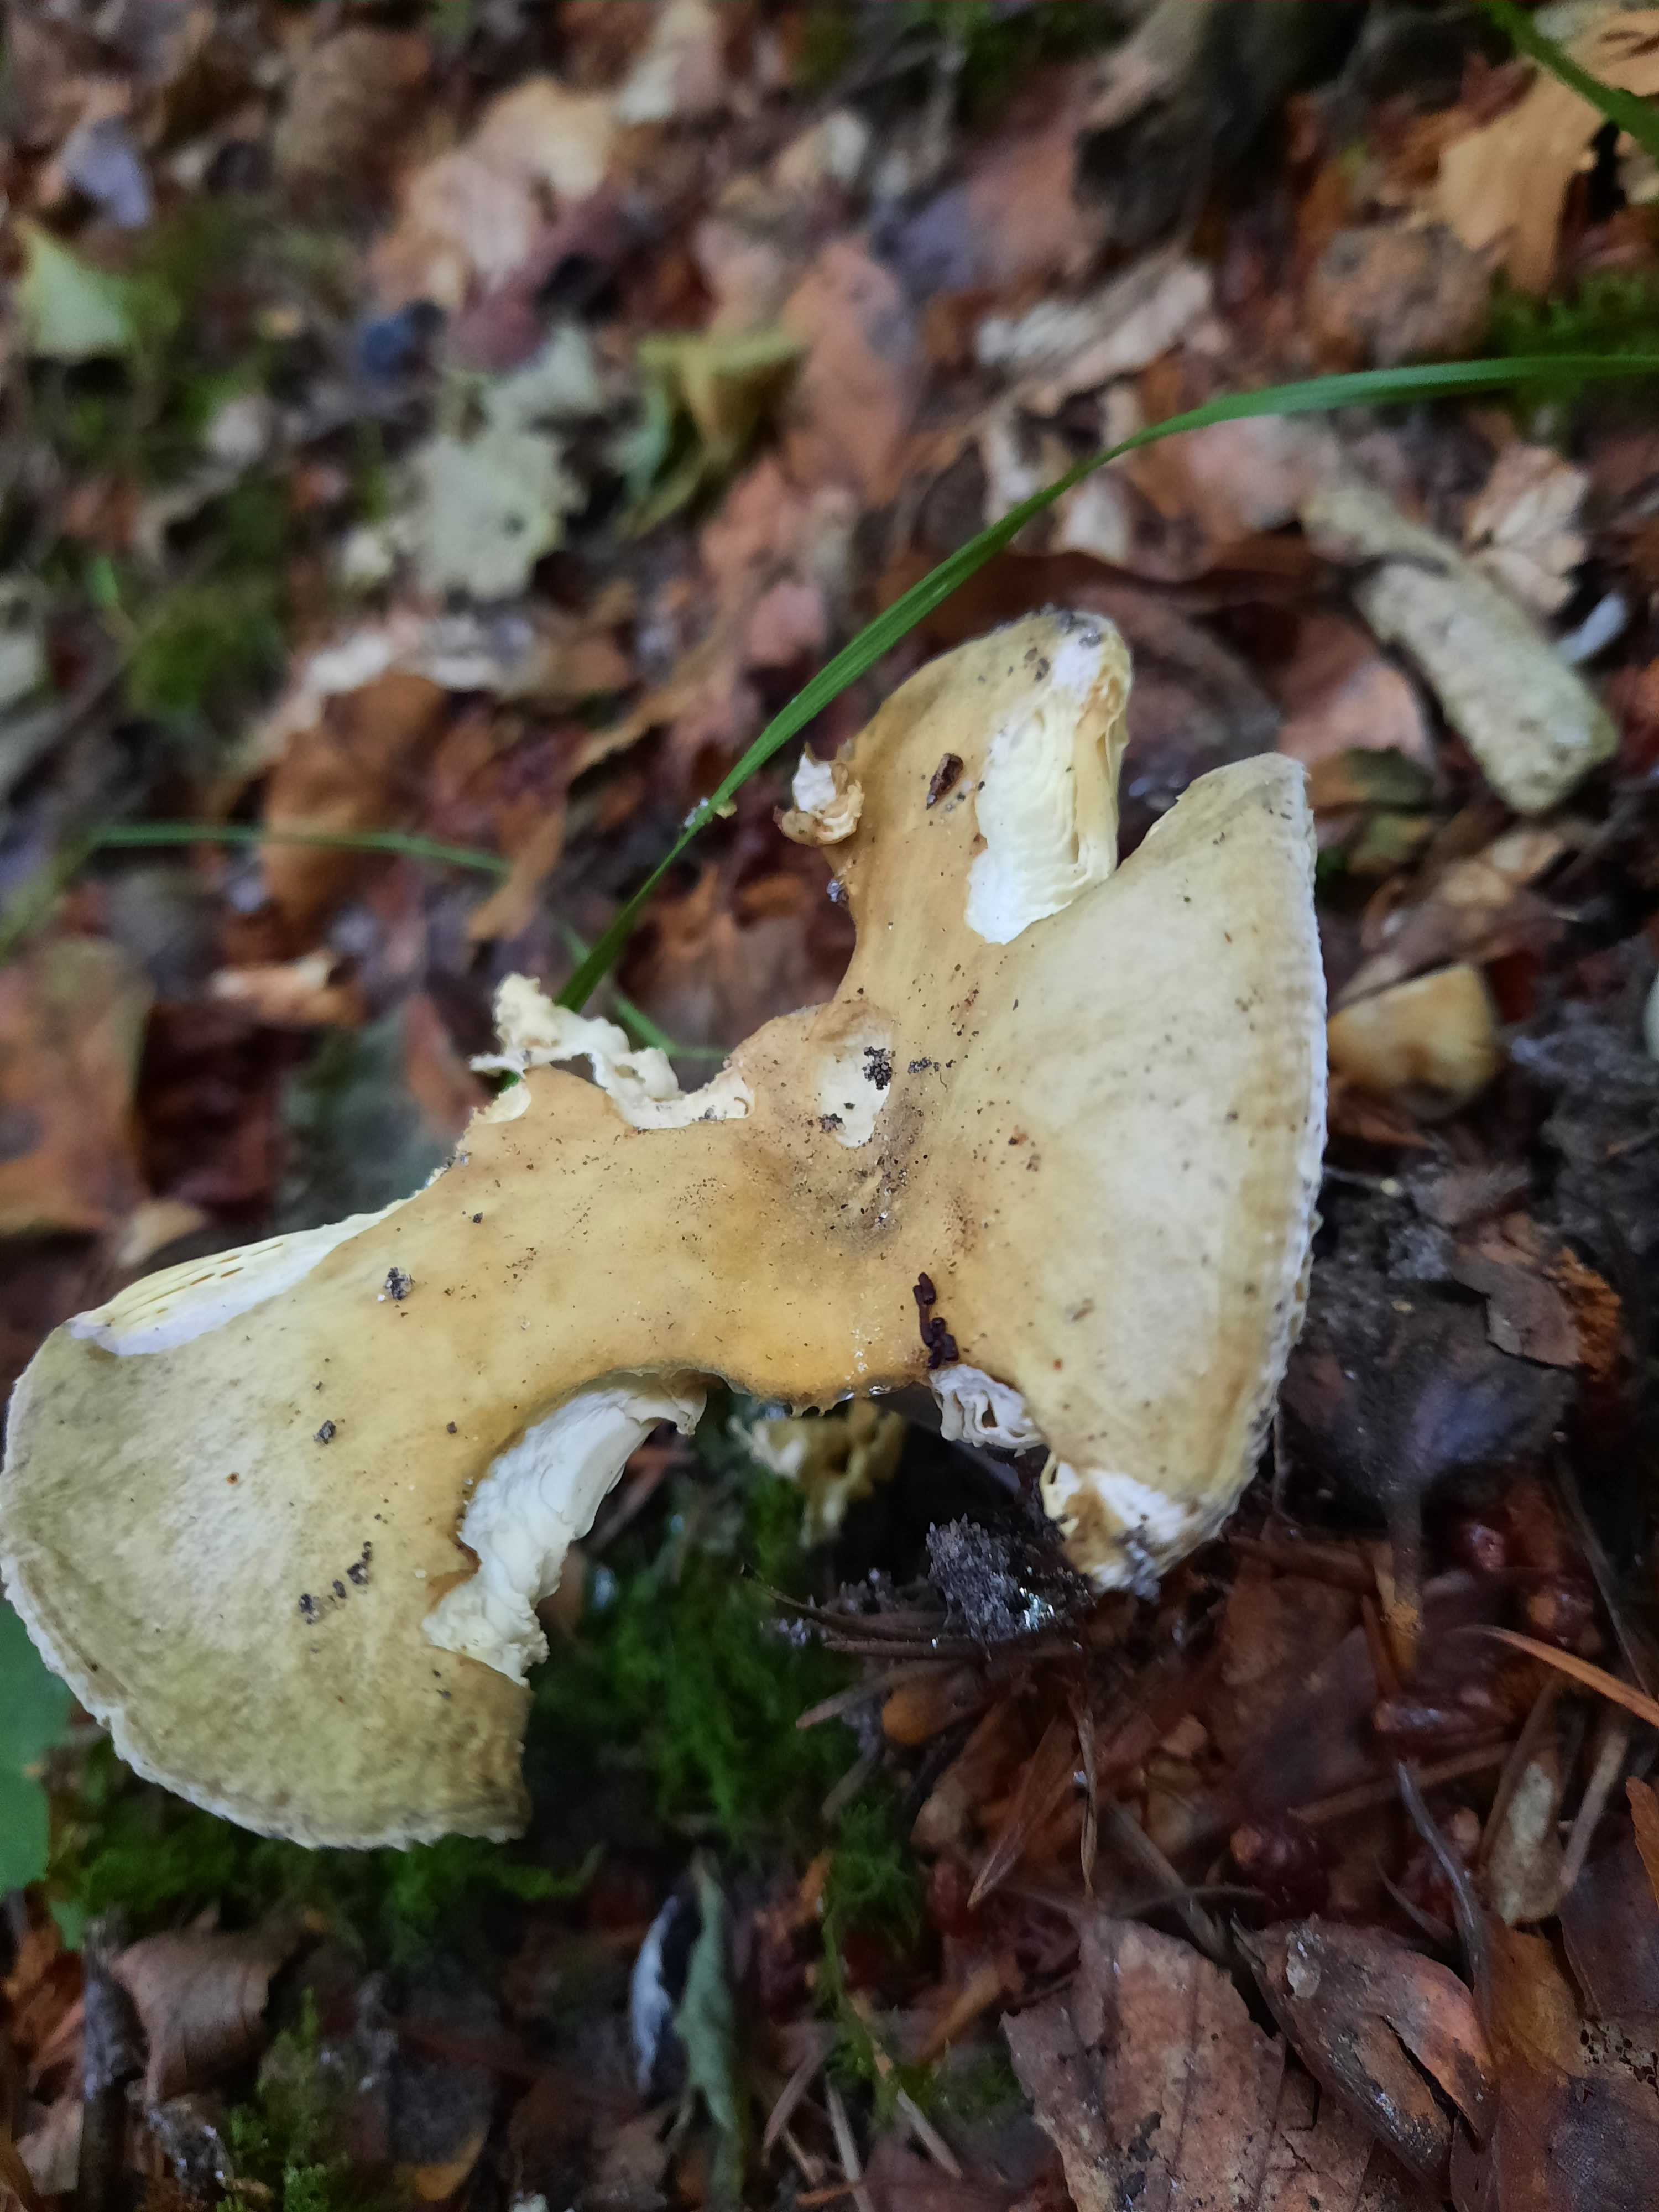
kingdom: Fungi
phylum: Basidiomycota
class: Agaricomycetes
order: Russulales
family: Russulaceae
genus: Russula
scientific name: Russula violeipes
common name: ferskengul skørhat
